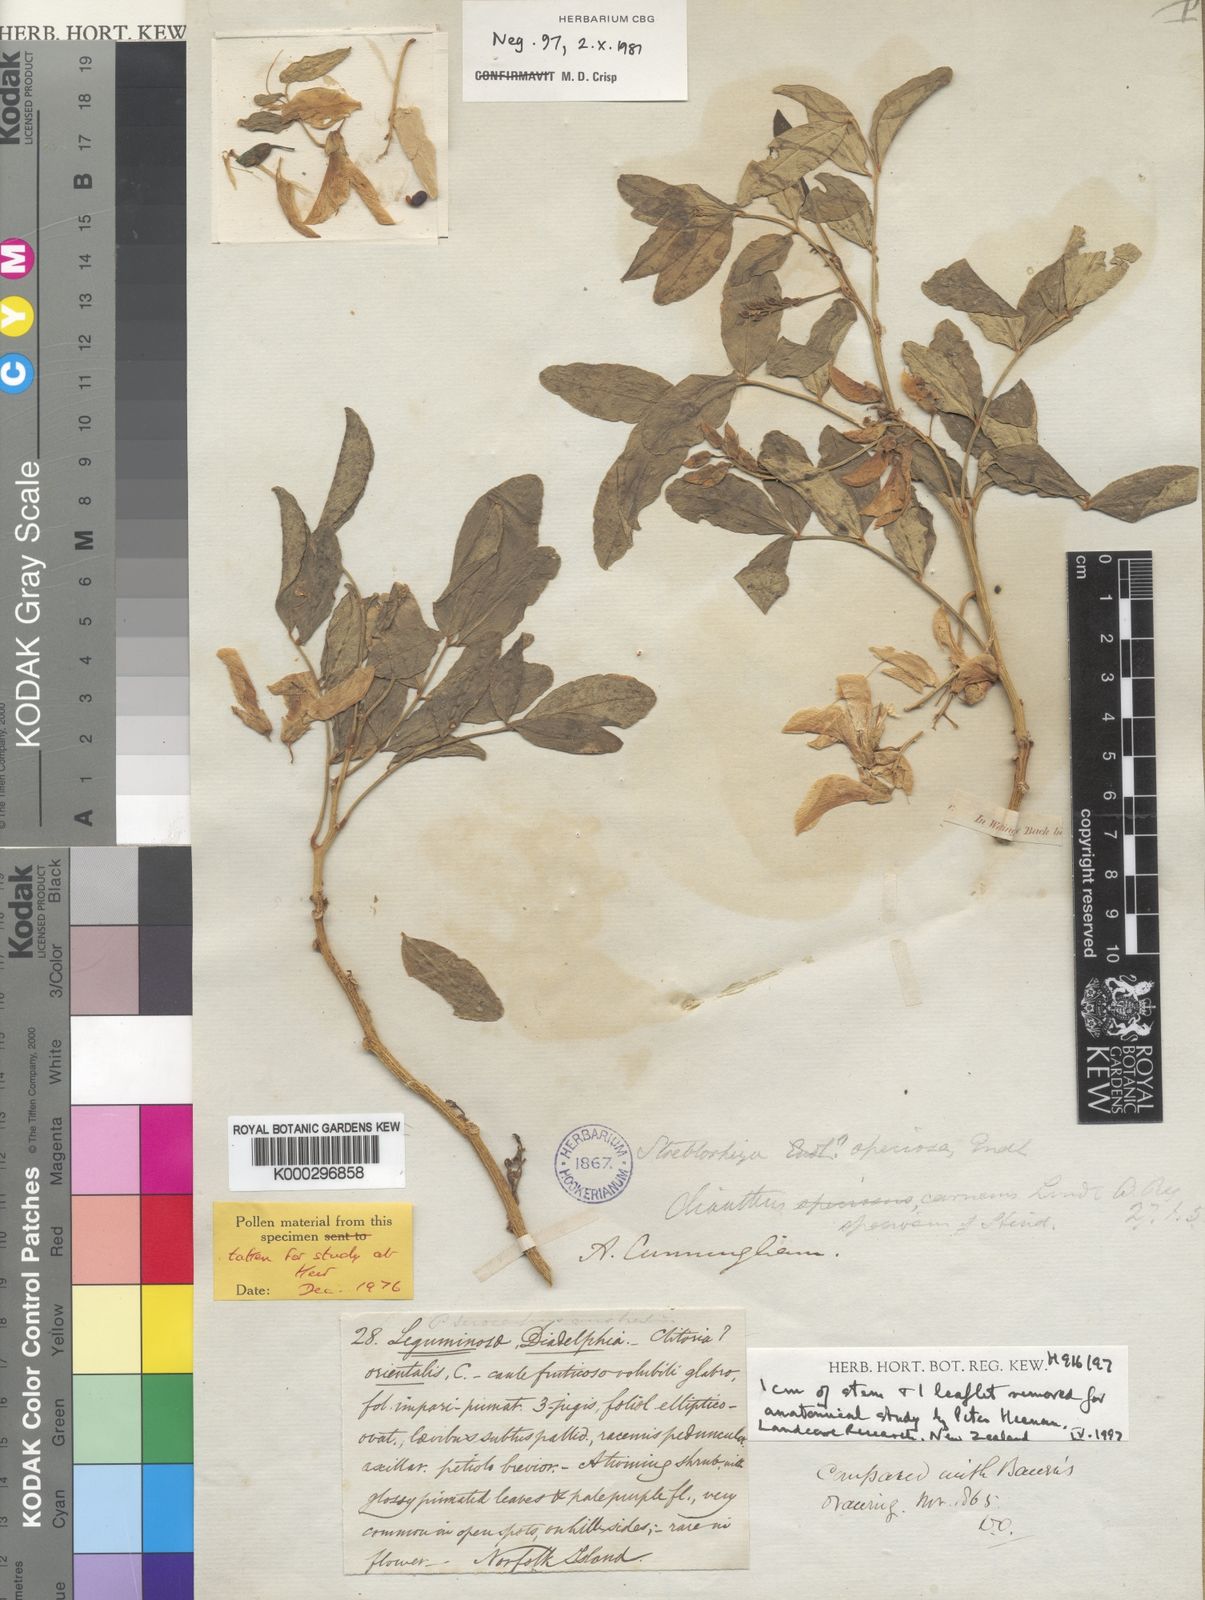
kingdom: Plantae
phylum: Tracheophyta
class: Magnoliopsida
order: Fabales
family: Fabaceae
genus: Streblorrhiza
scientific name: Streblorrhiza speciosa
